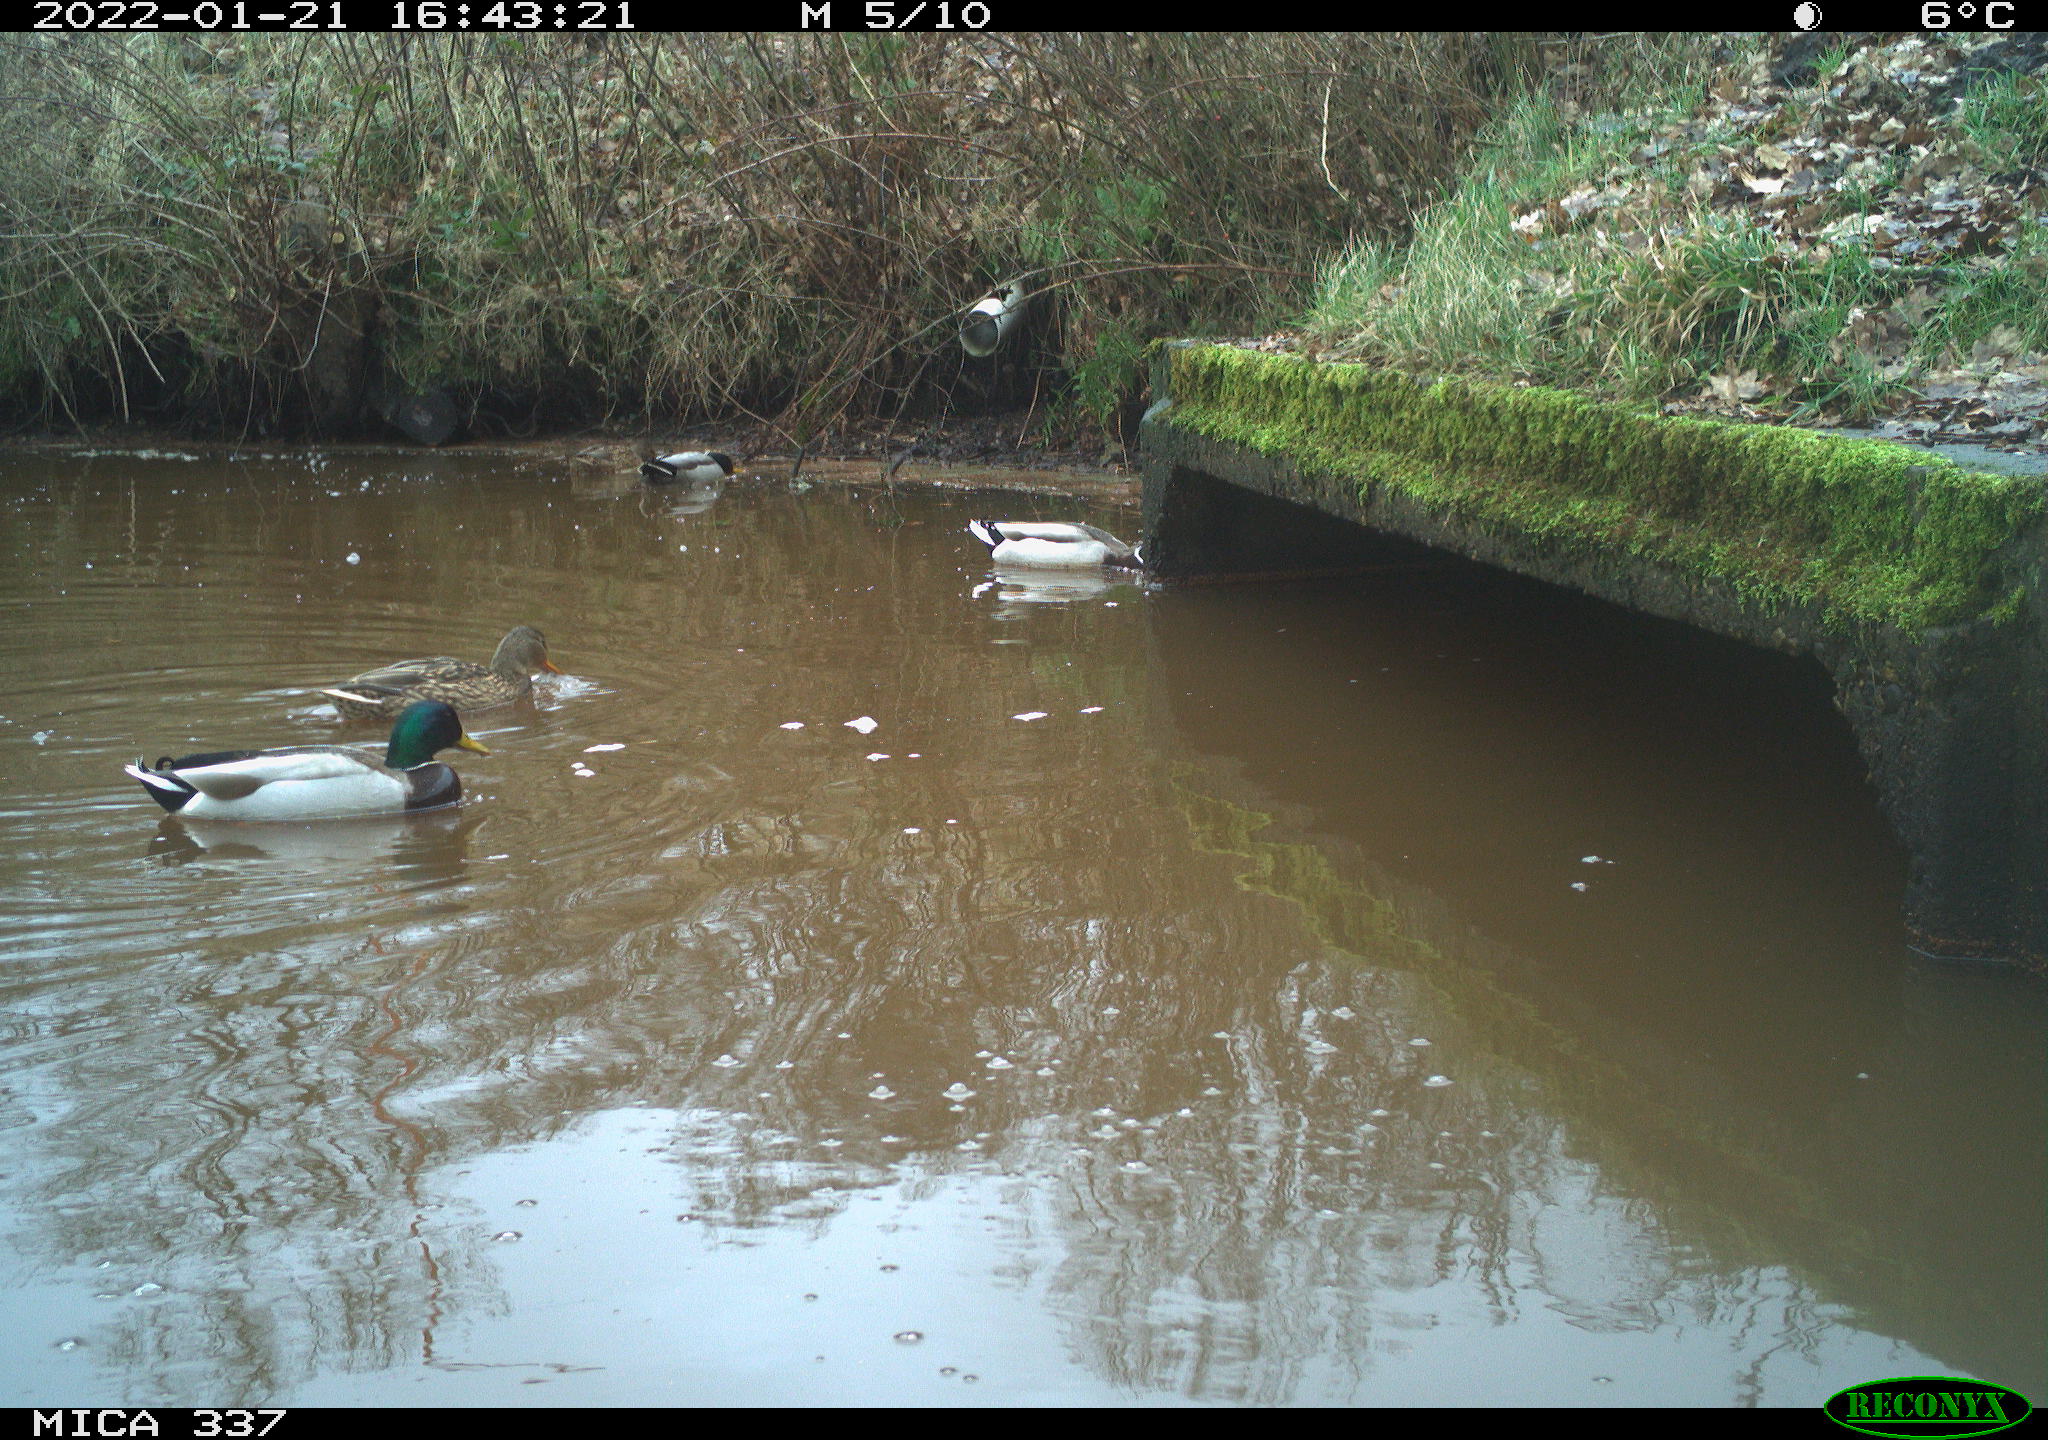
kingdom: Animalia
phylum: Chordata
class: Aves
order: Anseriformes
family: Anatidae
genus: Anas
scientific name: Anas platyrhynchos
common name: Mallard
